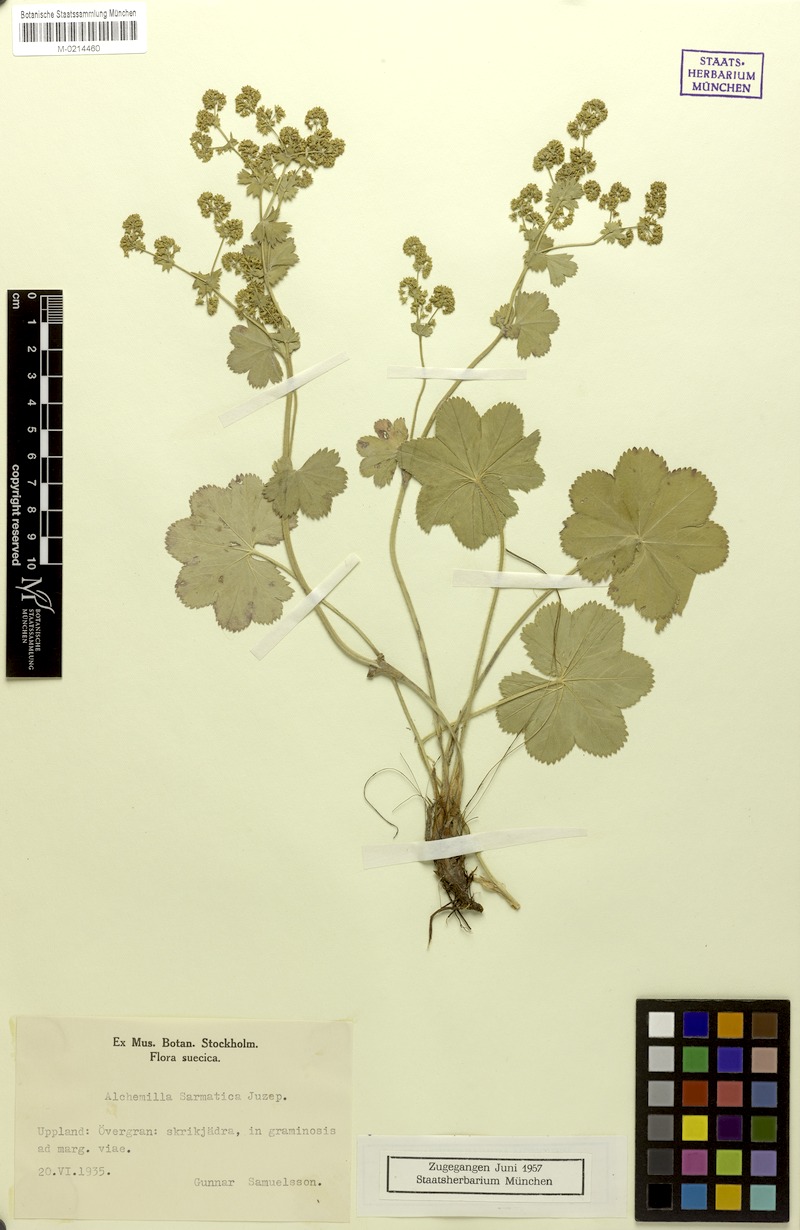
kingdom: Plantae
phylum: Tracheophyta
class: Magnoliopsida
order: Rosales
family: Rosaceae
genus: Alchemilla
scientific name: Alchemilla sarmatica
